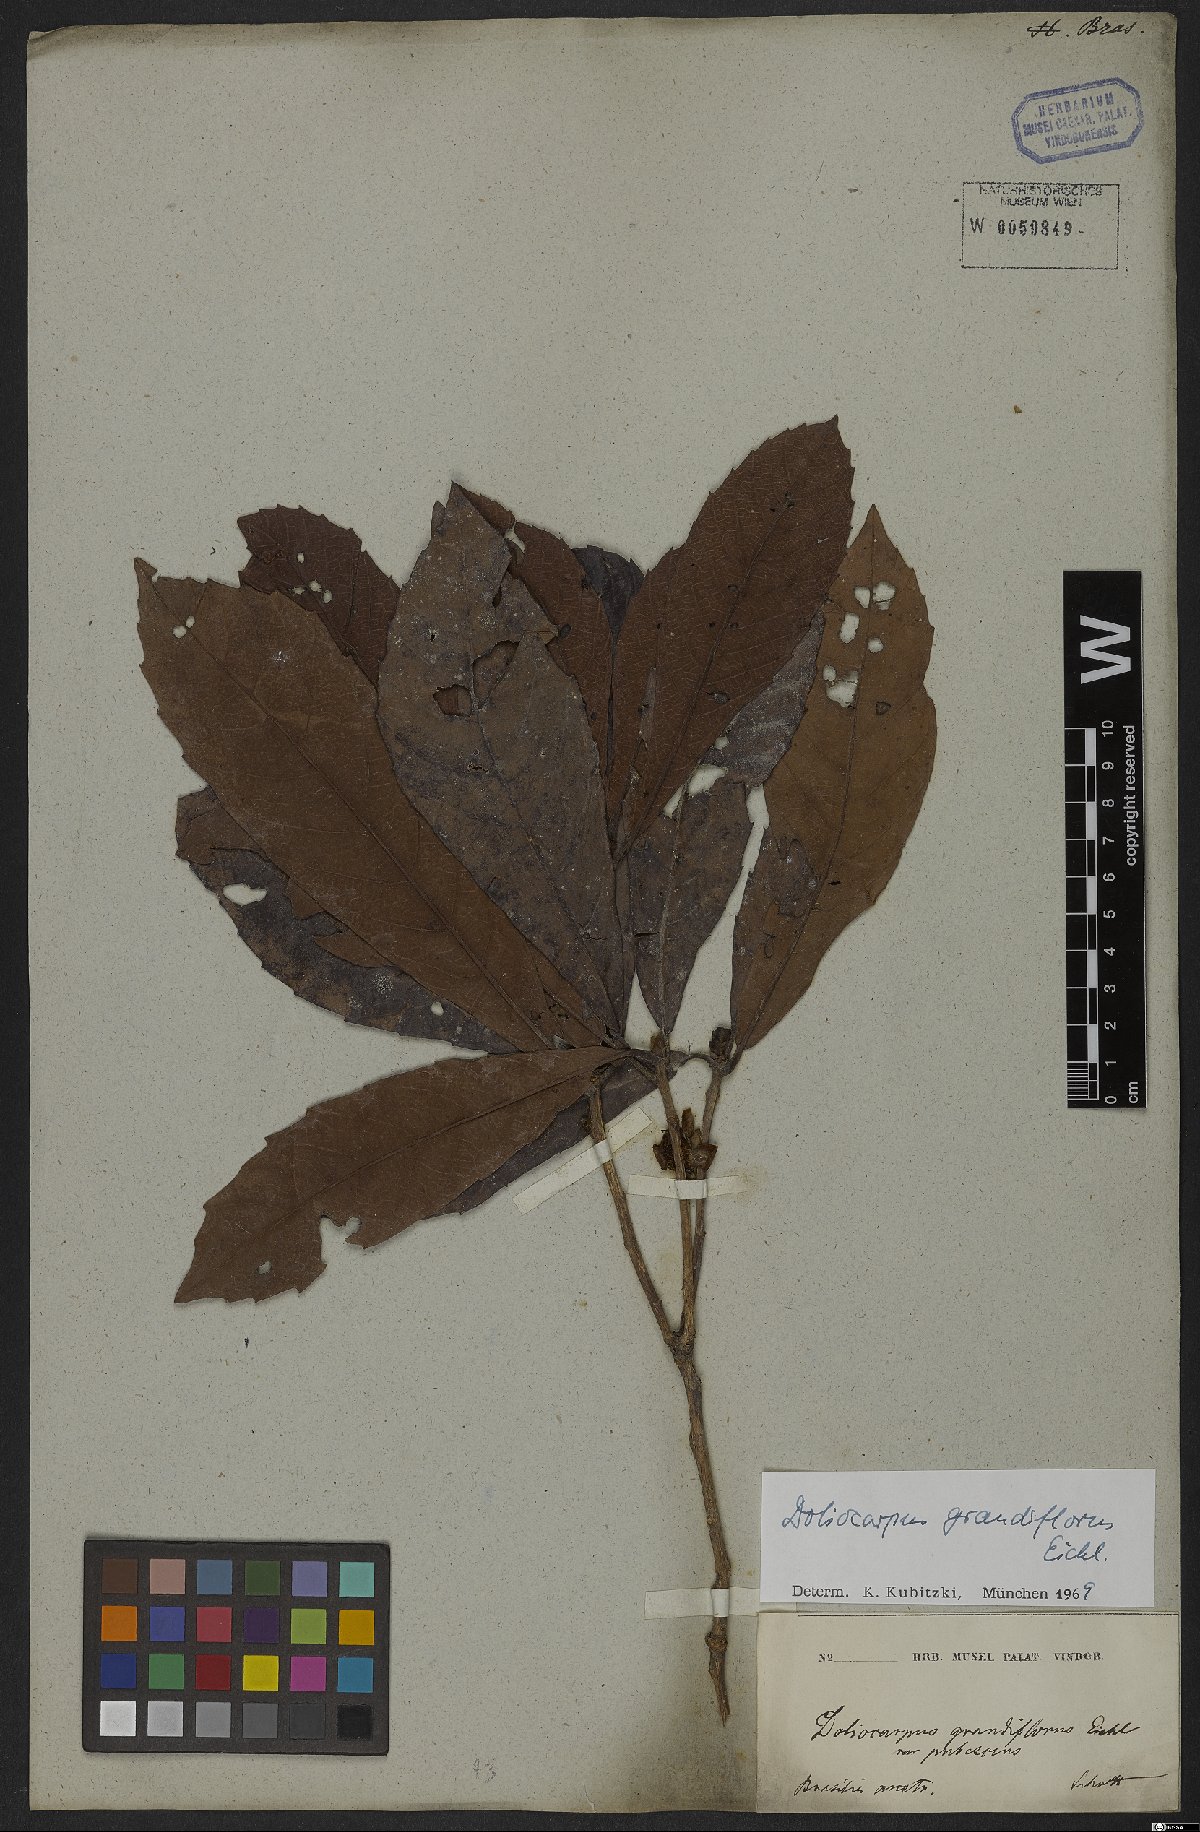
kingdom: Plantae
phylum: Tracheophyta
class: Magnoliopsida
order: Dilleniales
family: Dilleniaceae
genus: Doliocarpus
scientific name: Doliocarpus grandiflorus
